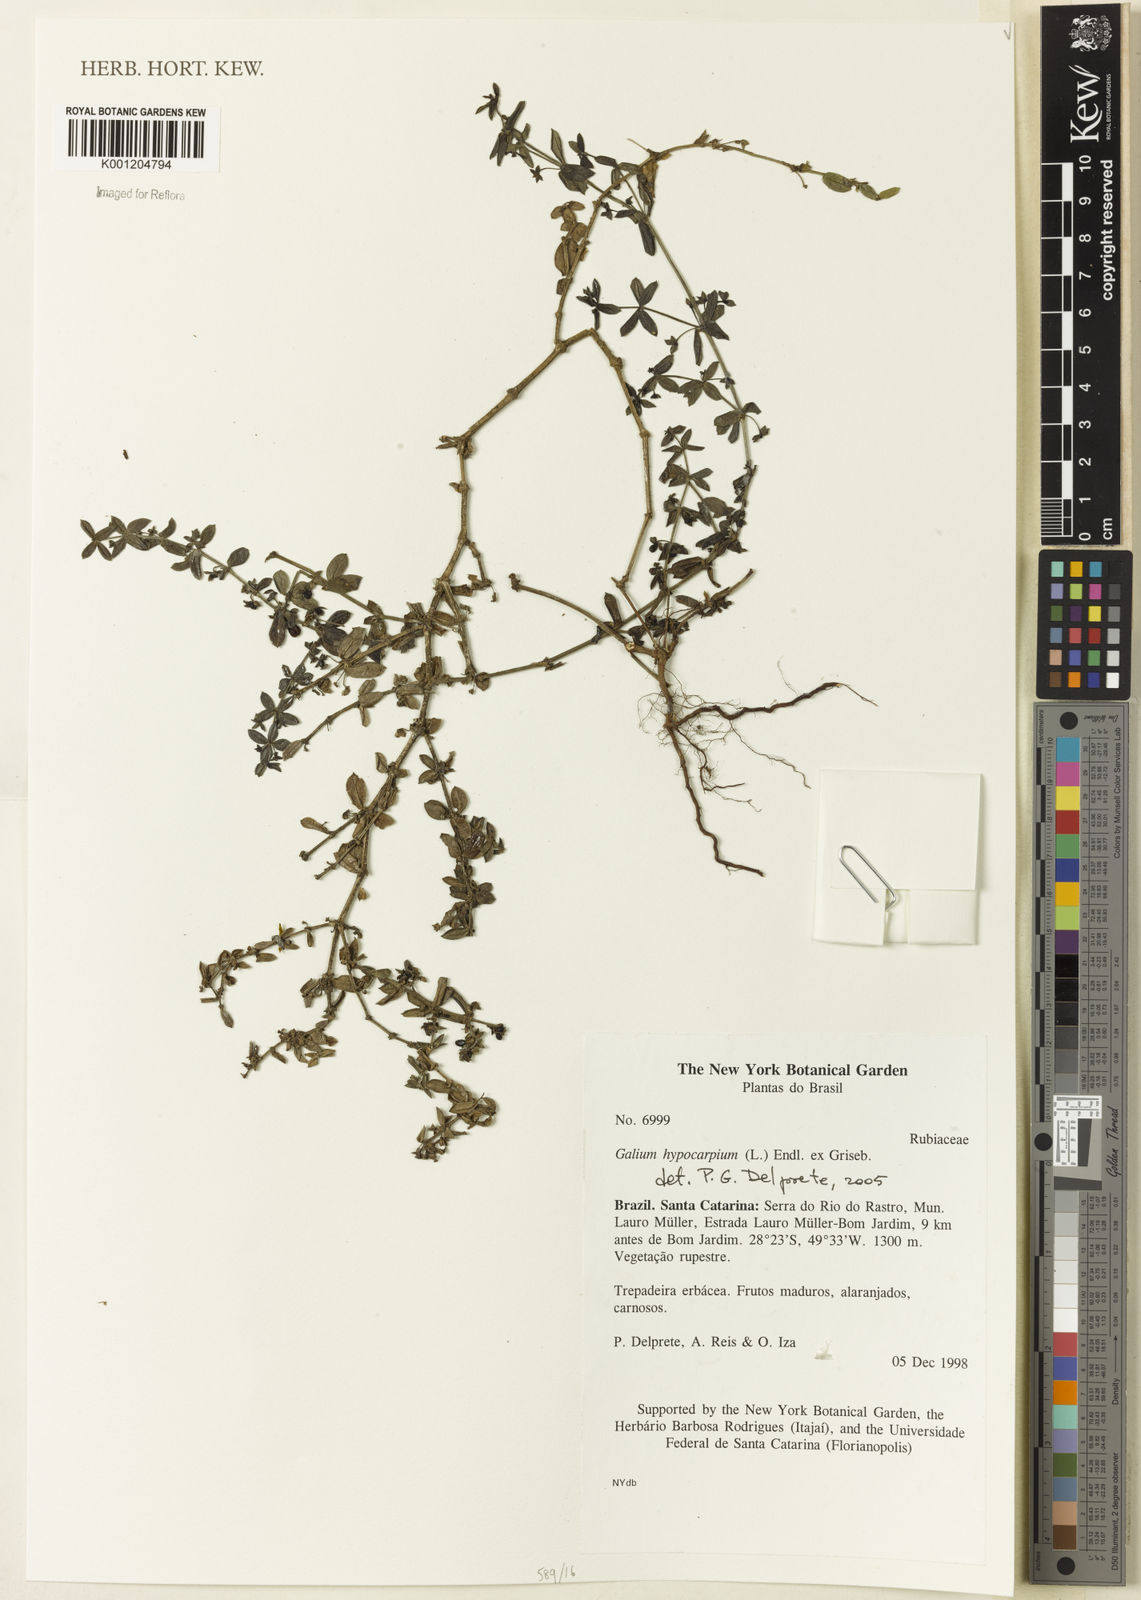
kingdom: Plantae
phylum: Tracheophyta
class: Magnoliopsida
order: Gentianales
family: Rubiaceae
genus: Galium
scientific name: Galium hypocarpium
